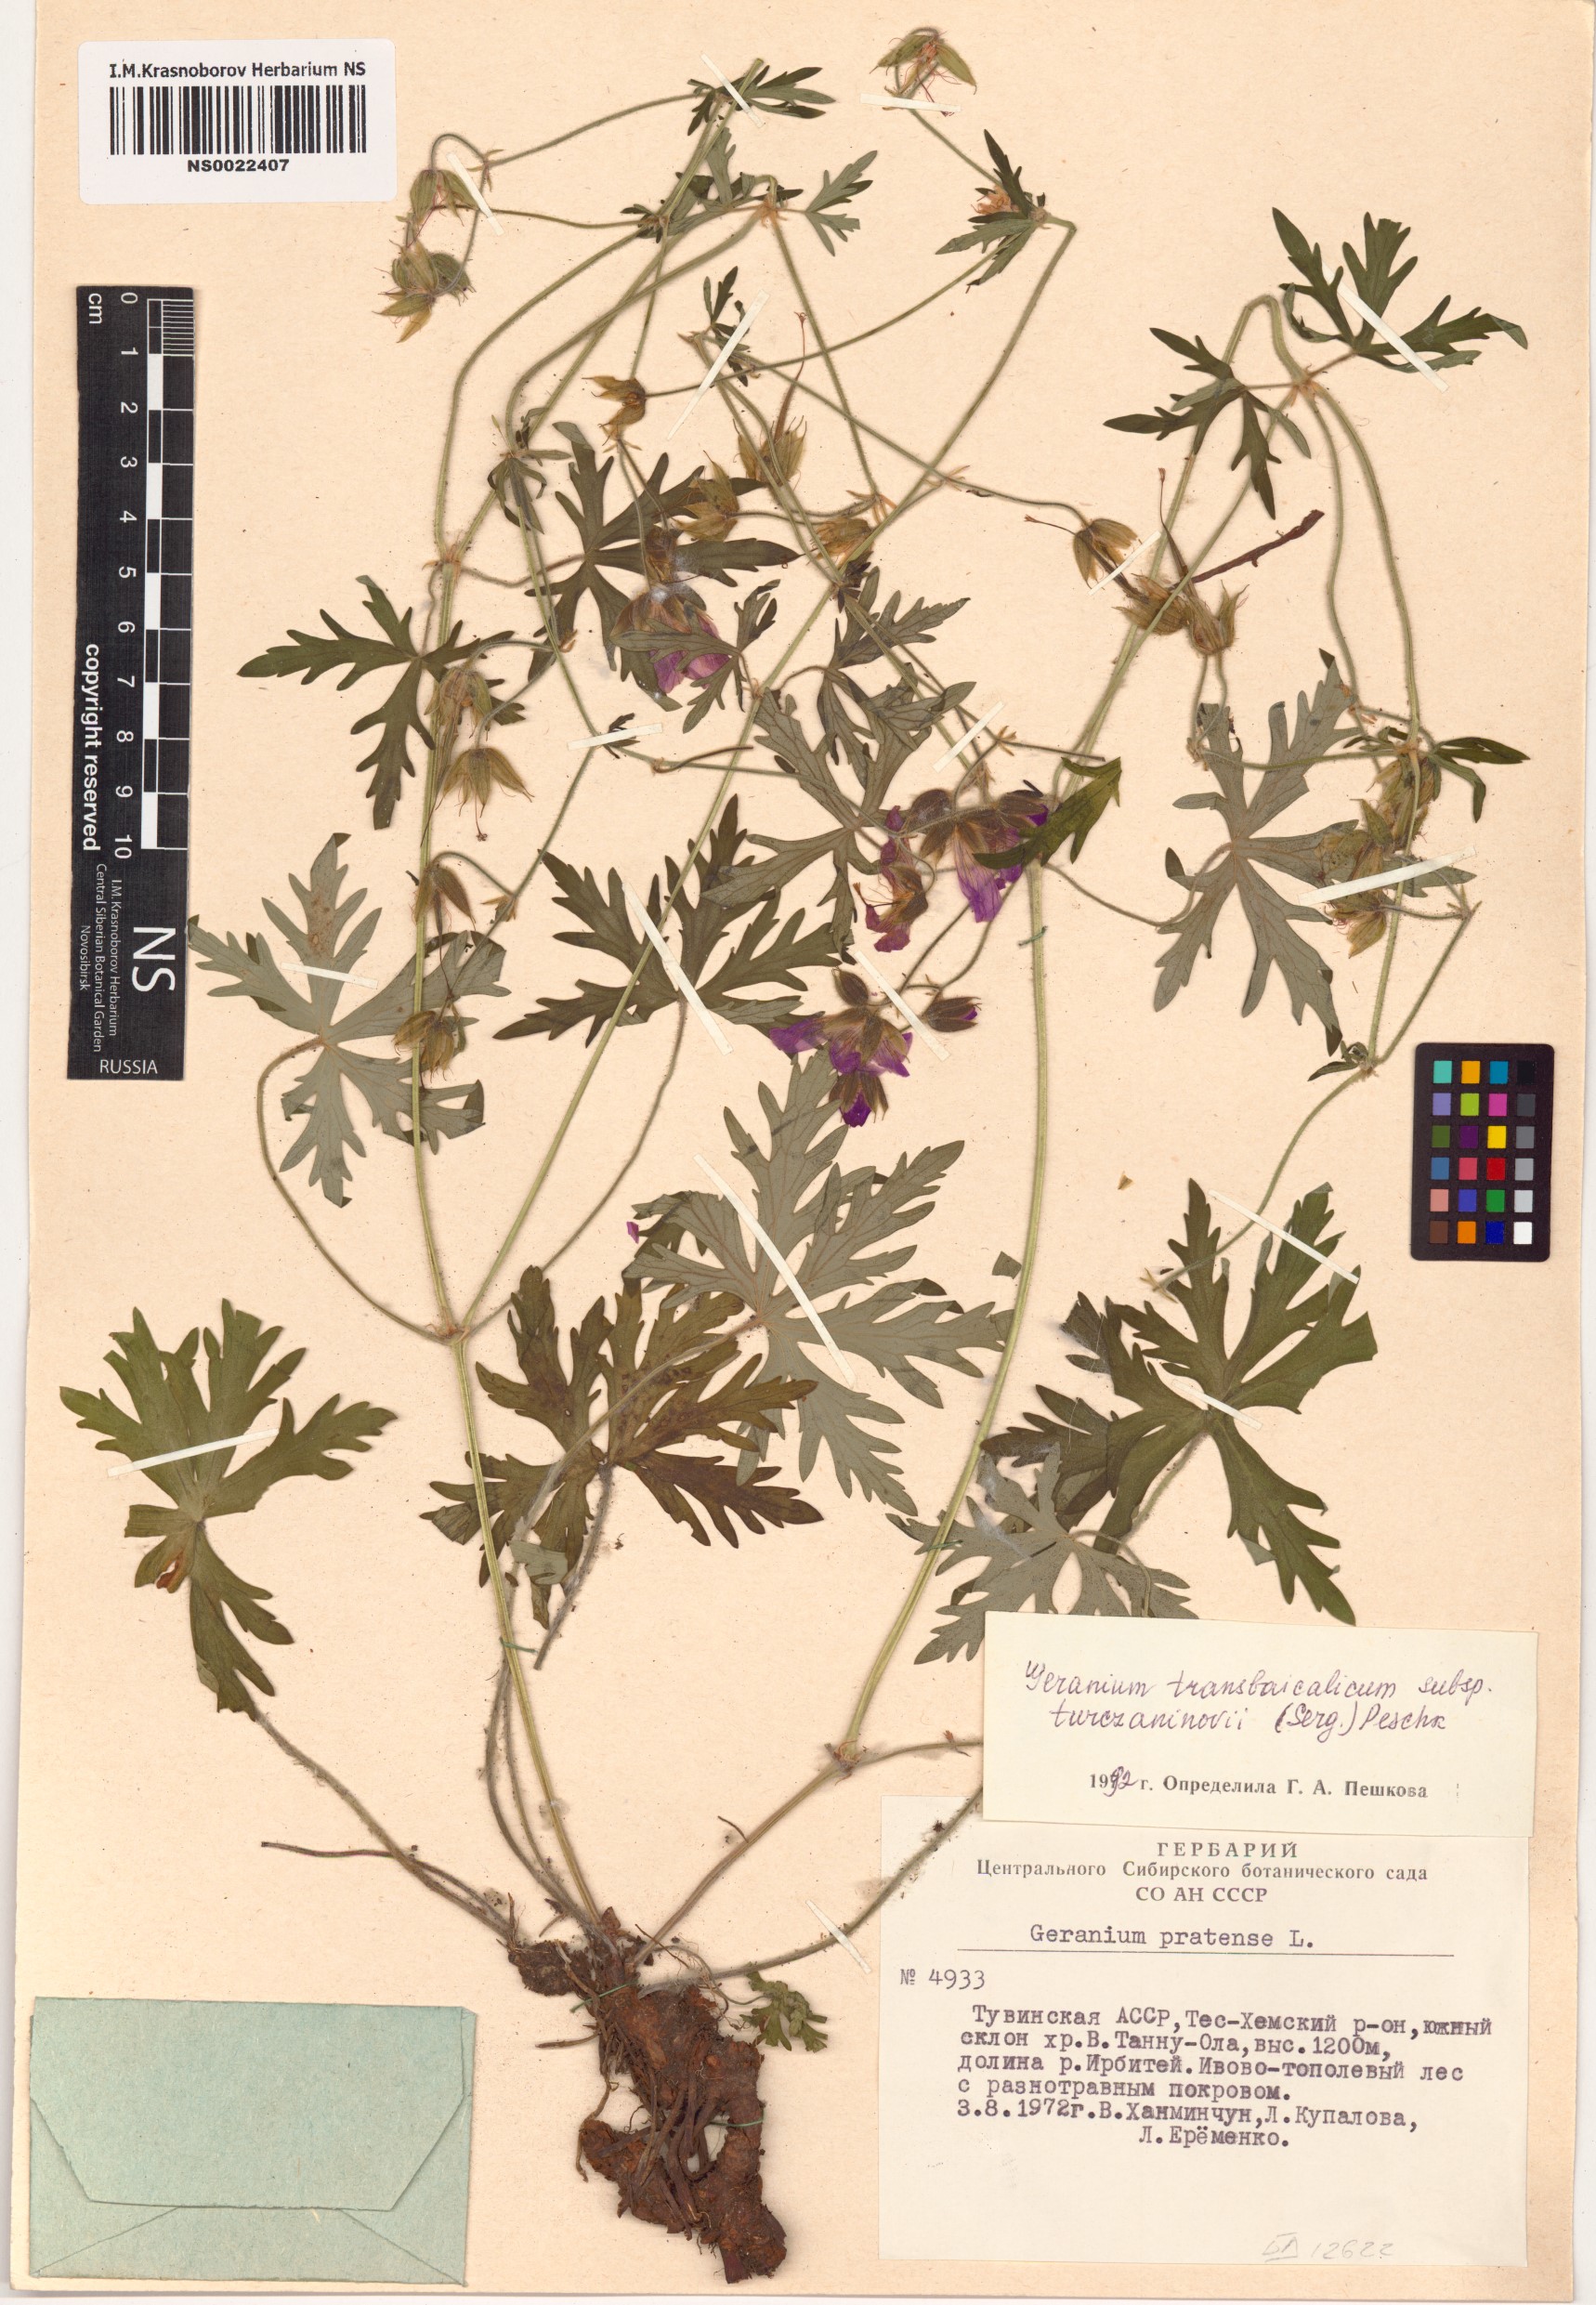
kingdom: Plantae
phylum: Tracheophyta
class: Magnoliopsida
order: Geraniales
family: Geraniaceae
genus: Geranium
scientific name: Geranium pratense
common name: Meadow crane's-bill
